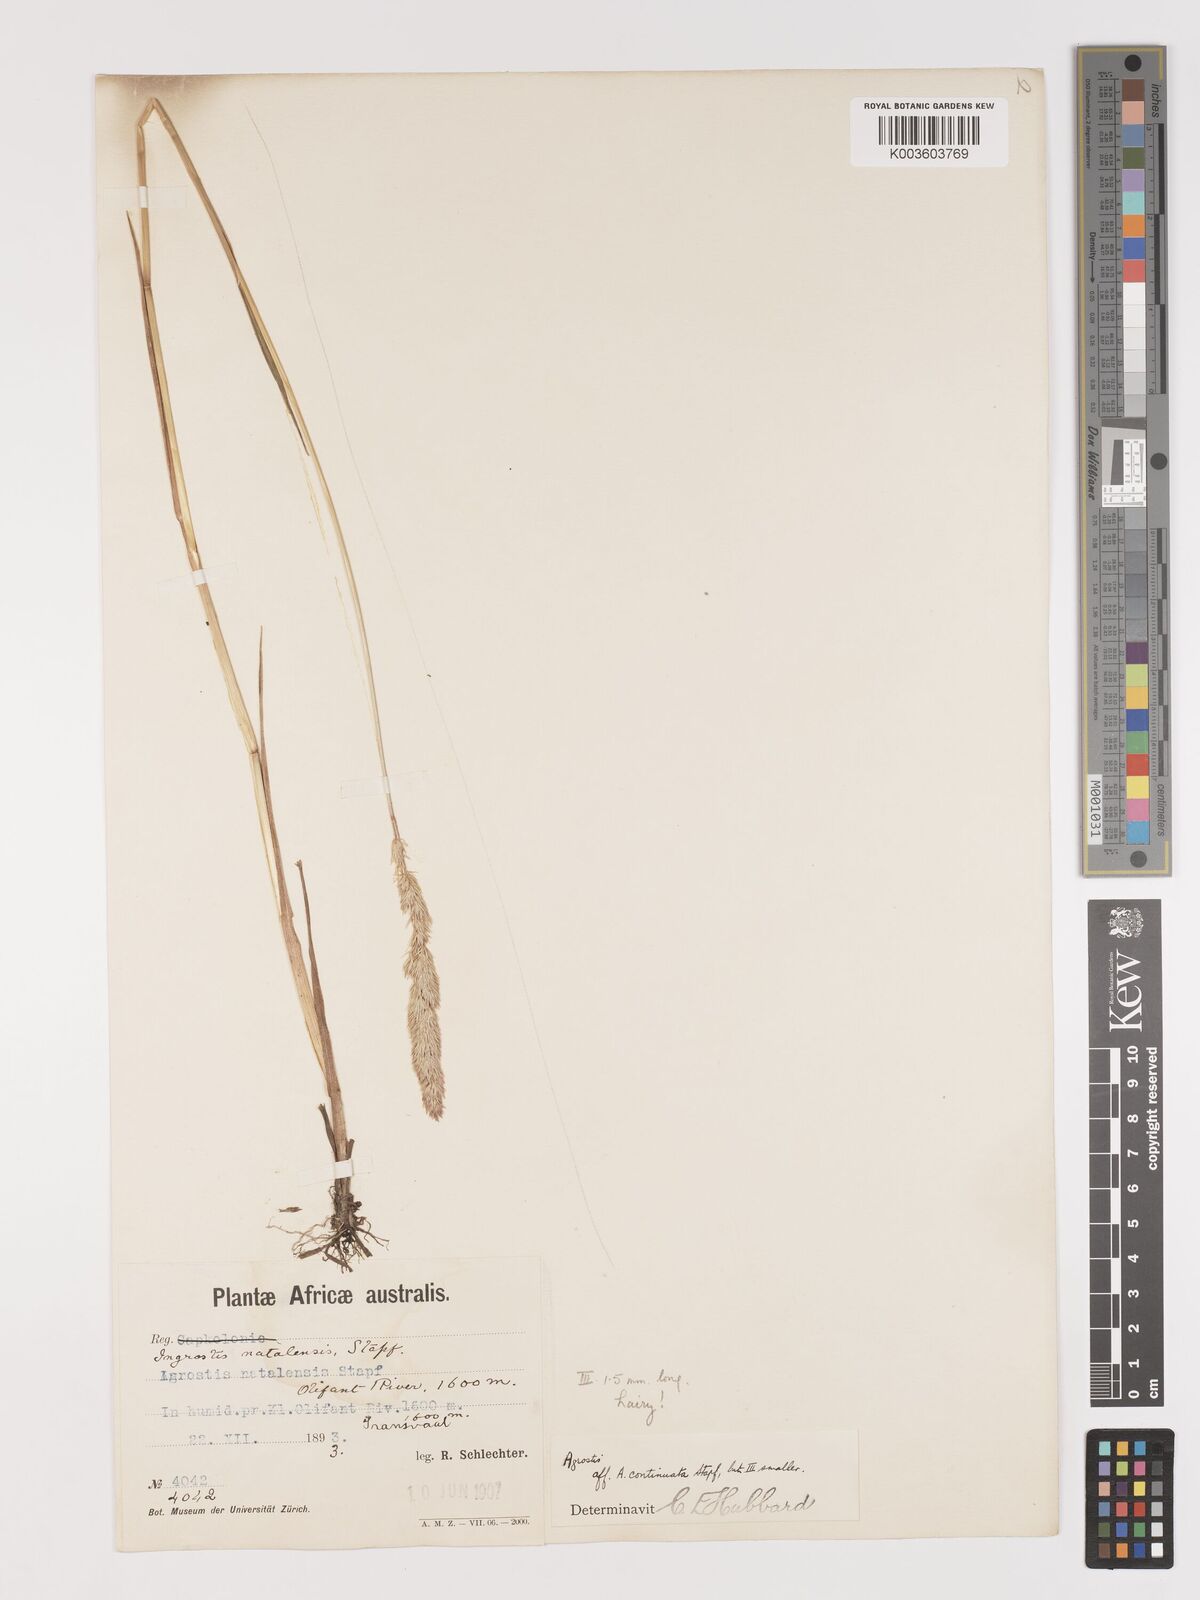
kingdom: Plantae
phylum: Tracheophyta
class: Liliopsida
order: Poales
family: Poaceae
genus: Agrostis
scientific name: Agrostis continuata
